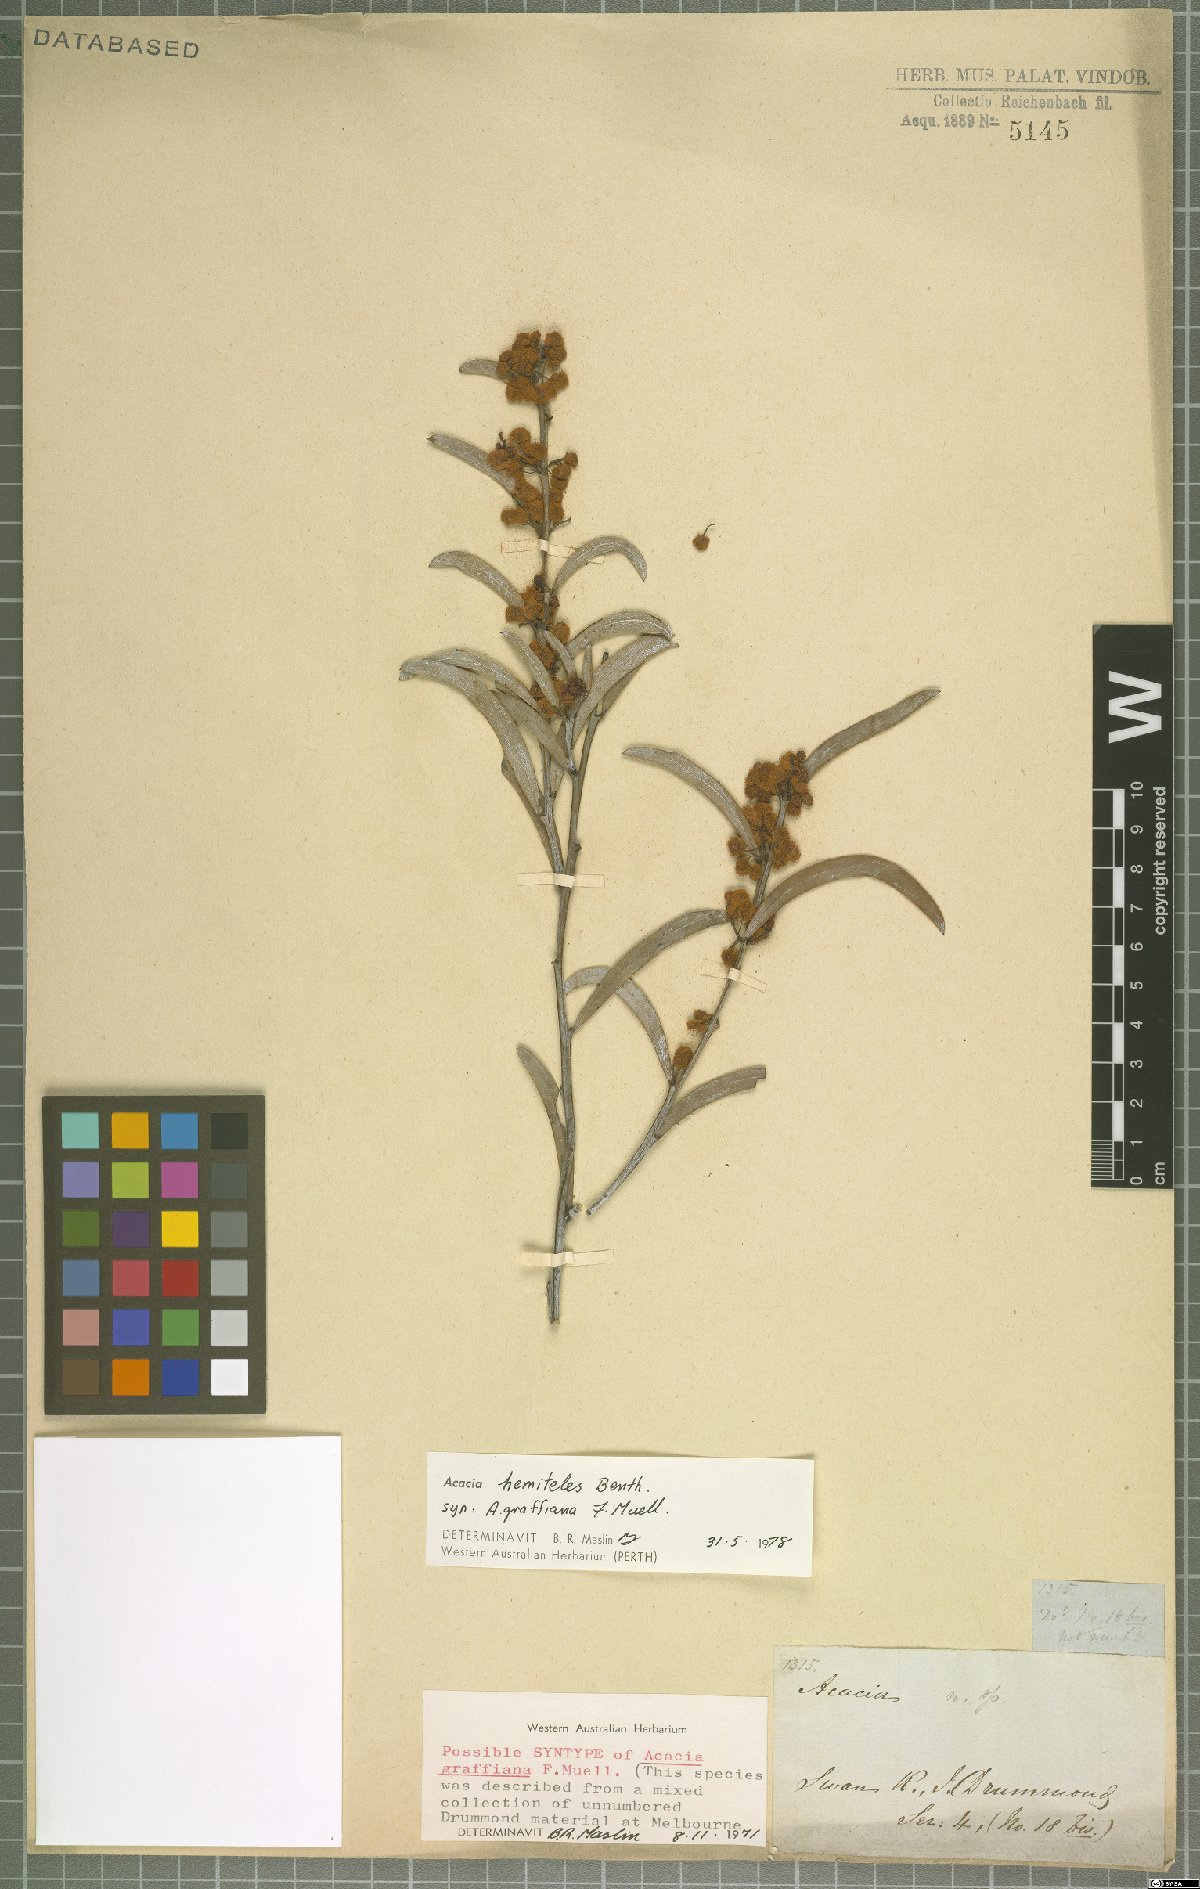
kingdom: Plantae
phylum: Tracheophyta
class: Magnoliopsida
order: Fabales
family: Fabaceae
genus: Acacia
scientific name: Acacia hemiteles
